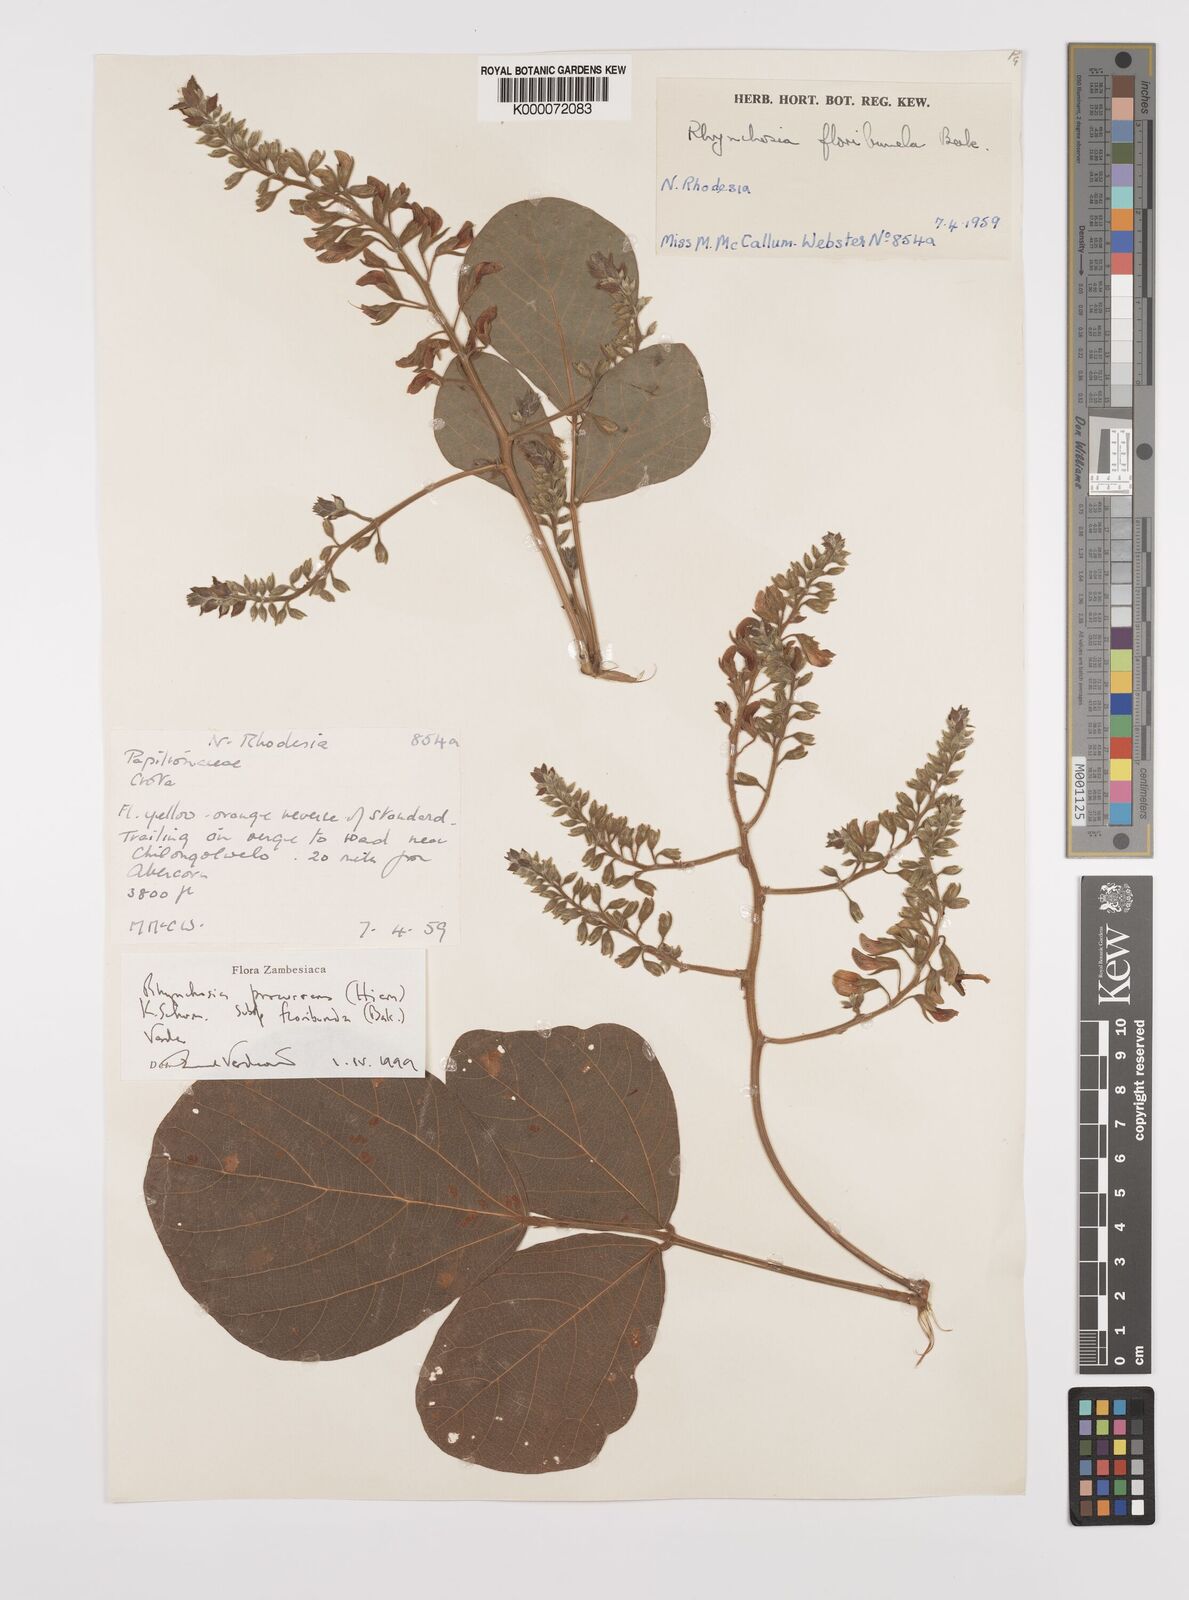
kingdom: Plantae
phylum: Tracheophyta
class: Magnoliopsida
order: Fabales
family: Fabaceae
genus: Rhynchosia
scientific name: Rhynchosia procurrens
